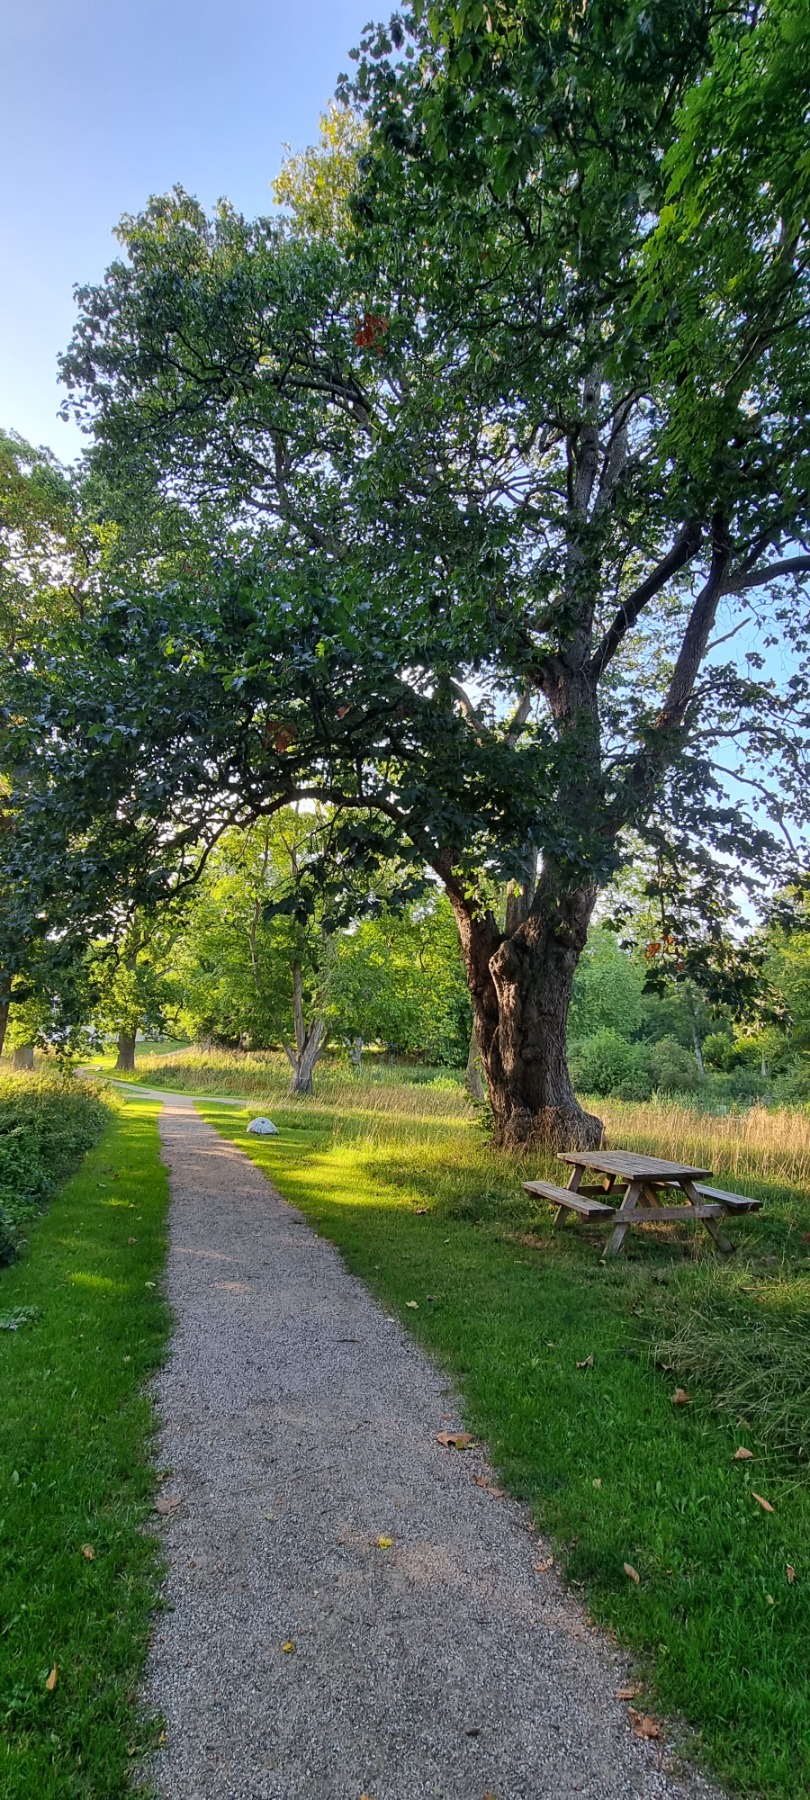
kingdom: Plantae
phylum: Tracheophyta
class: Magnoliopsida
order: Rosales
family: Rosaceae
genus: Torminalis
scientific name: Torminalis glaberrima
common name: Tarmvrid-røn
